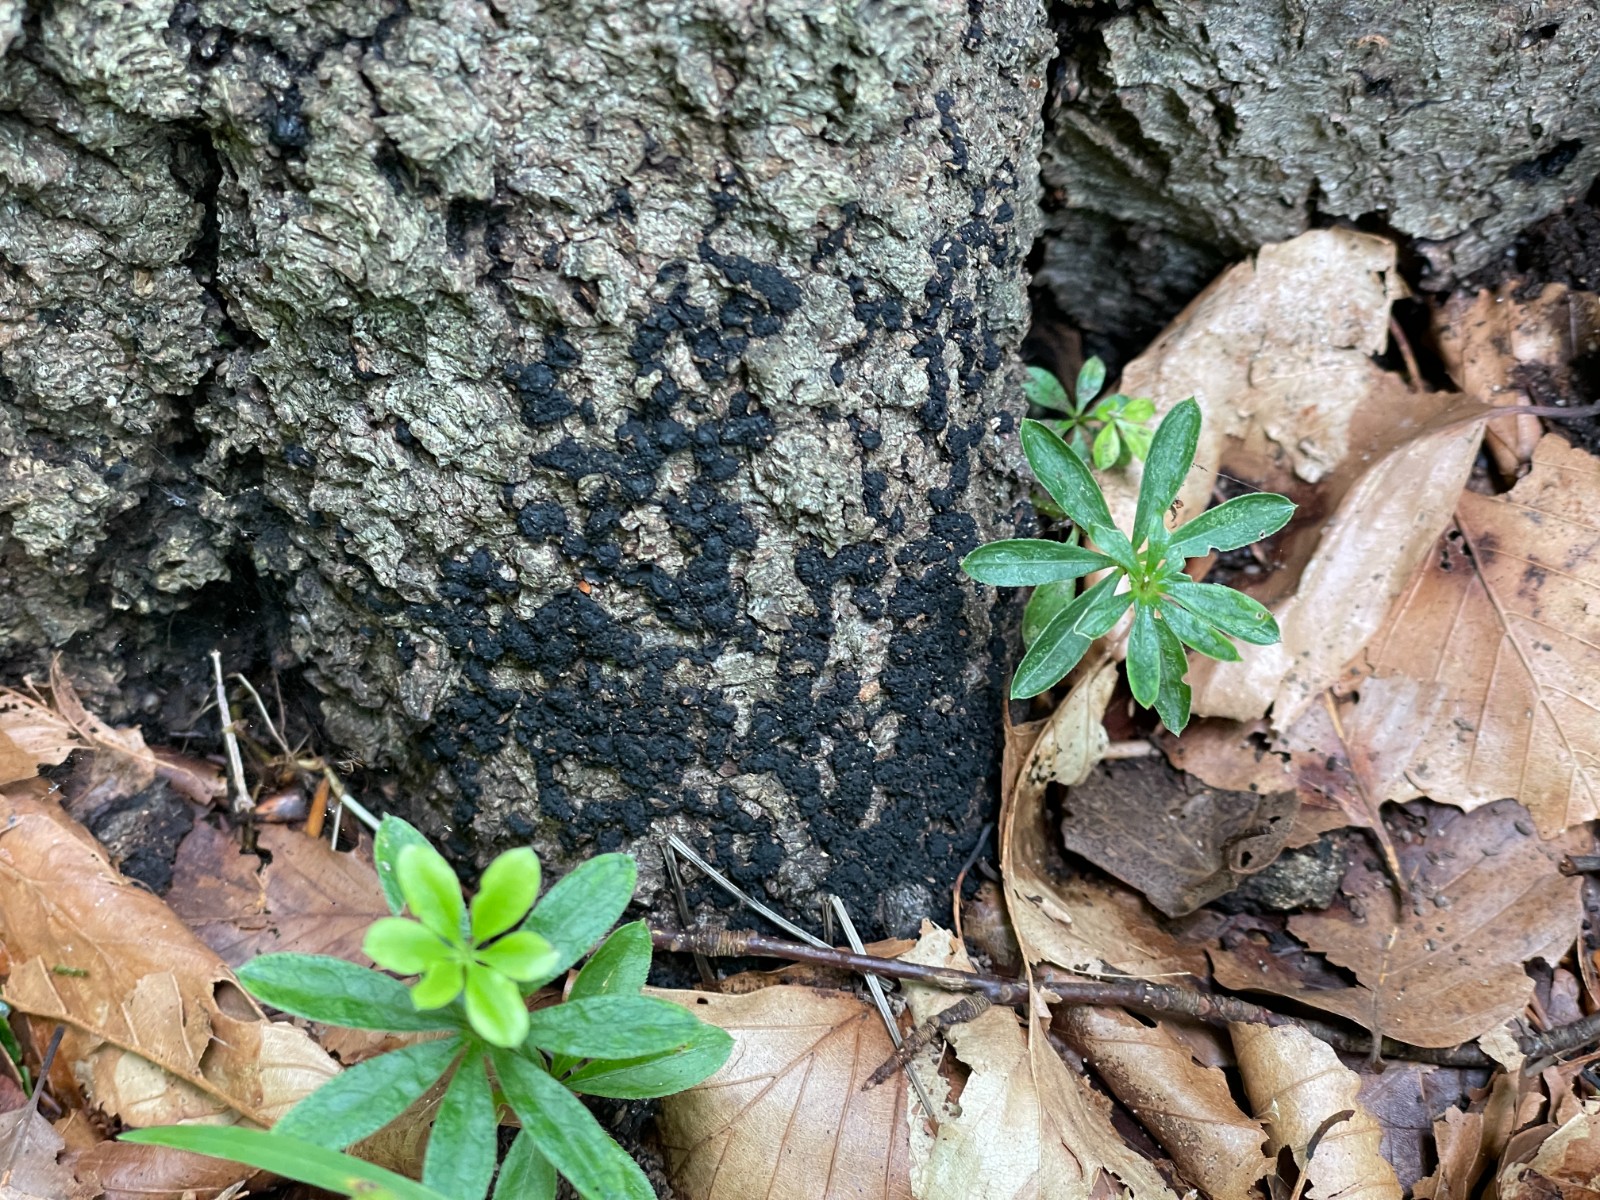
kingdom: Fungi
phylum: Ascomycota
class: Sordariomycetes
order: Xylariales
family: Melogrammataceae
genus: Melogramma
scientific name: Melogramma spiniferum
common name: bøgefod-kulhals
